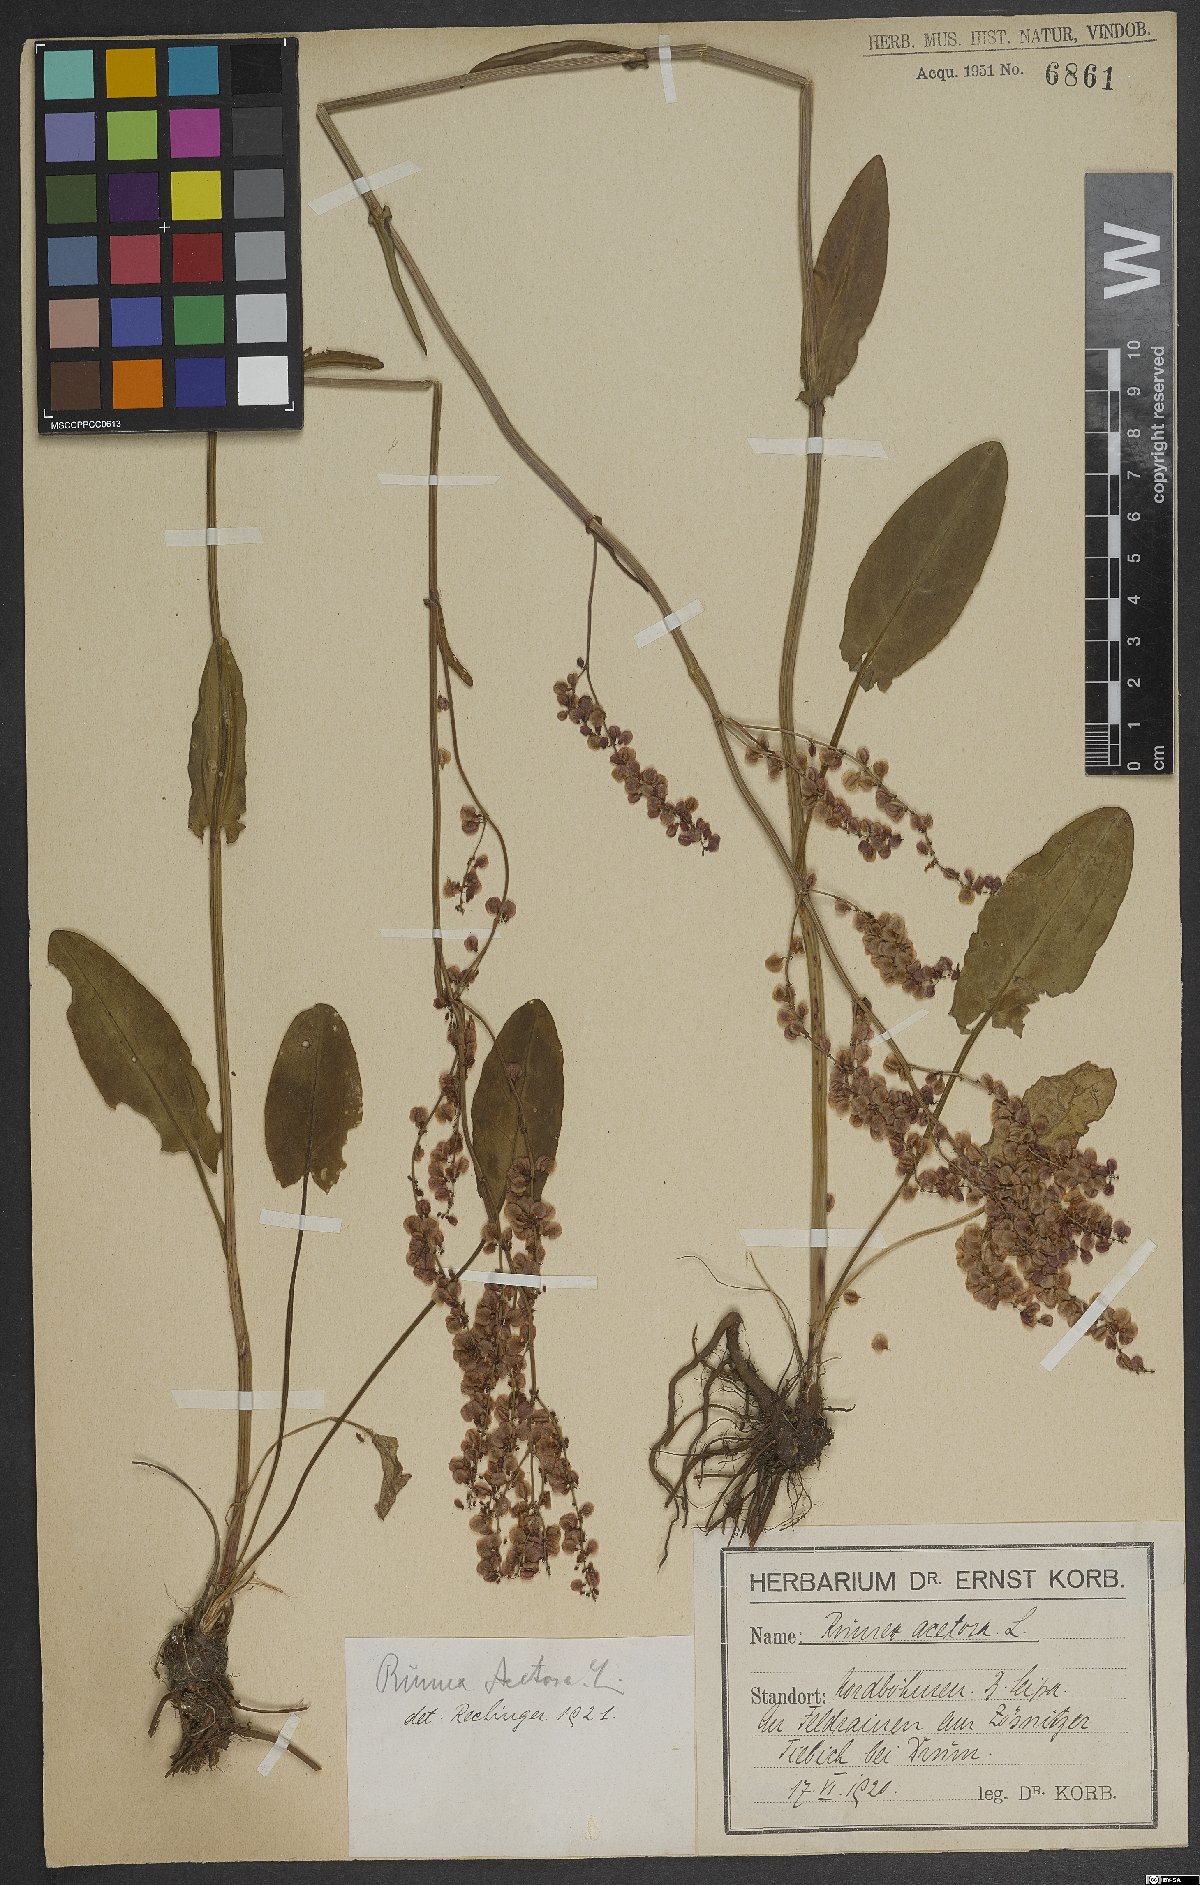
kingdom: Plantae
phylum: Tracheophyta
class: Magnoliopsida
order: Caryophyllales
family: Polygonaceae
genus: Rumex
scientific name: Rumex acetosa
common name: Garden sorrel
